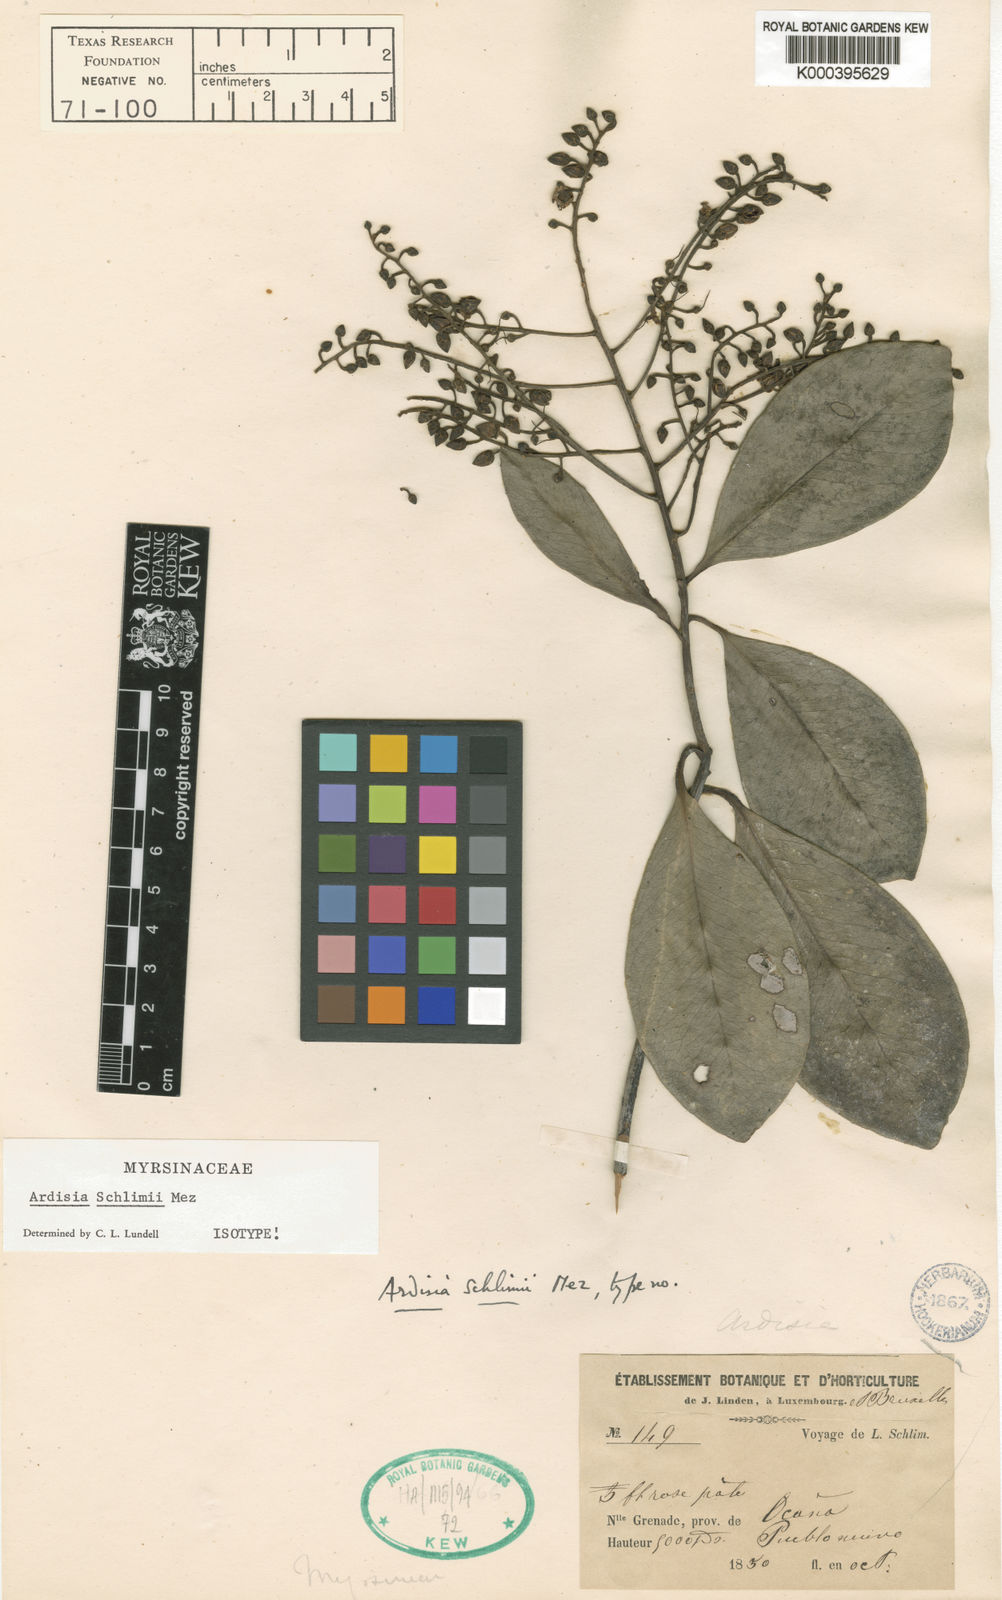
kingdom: Plantae
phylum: Tracheophyta
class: Magnoliopsida
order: Ericales
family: Primulaceae
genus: Ardisia
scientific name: Ardisia revoluta
